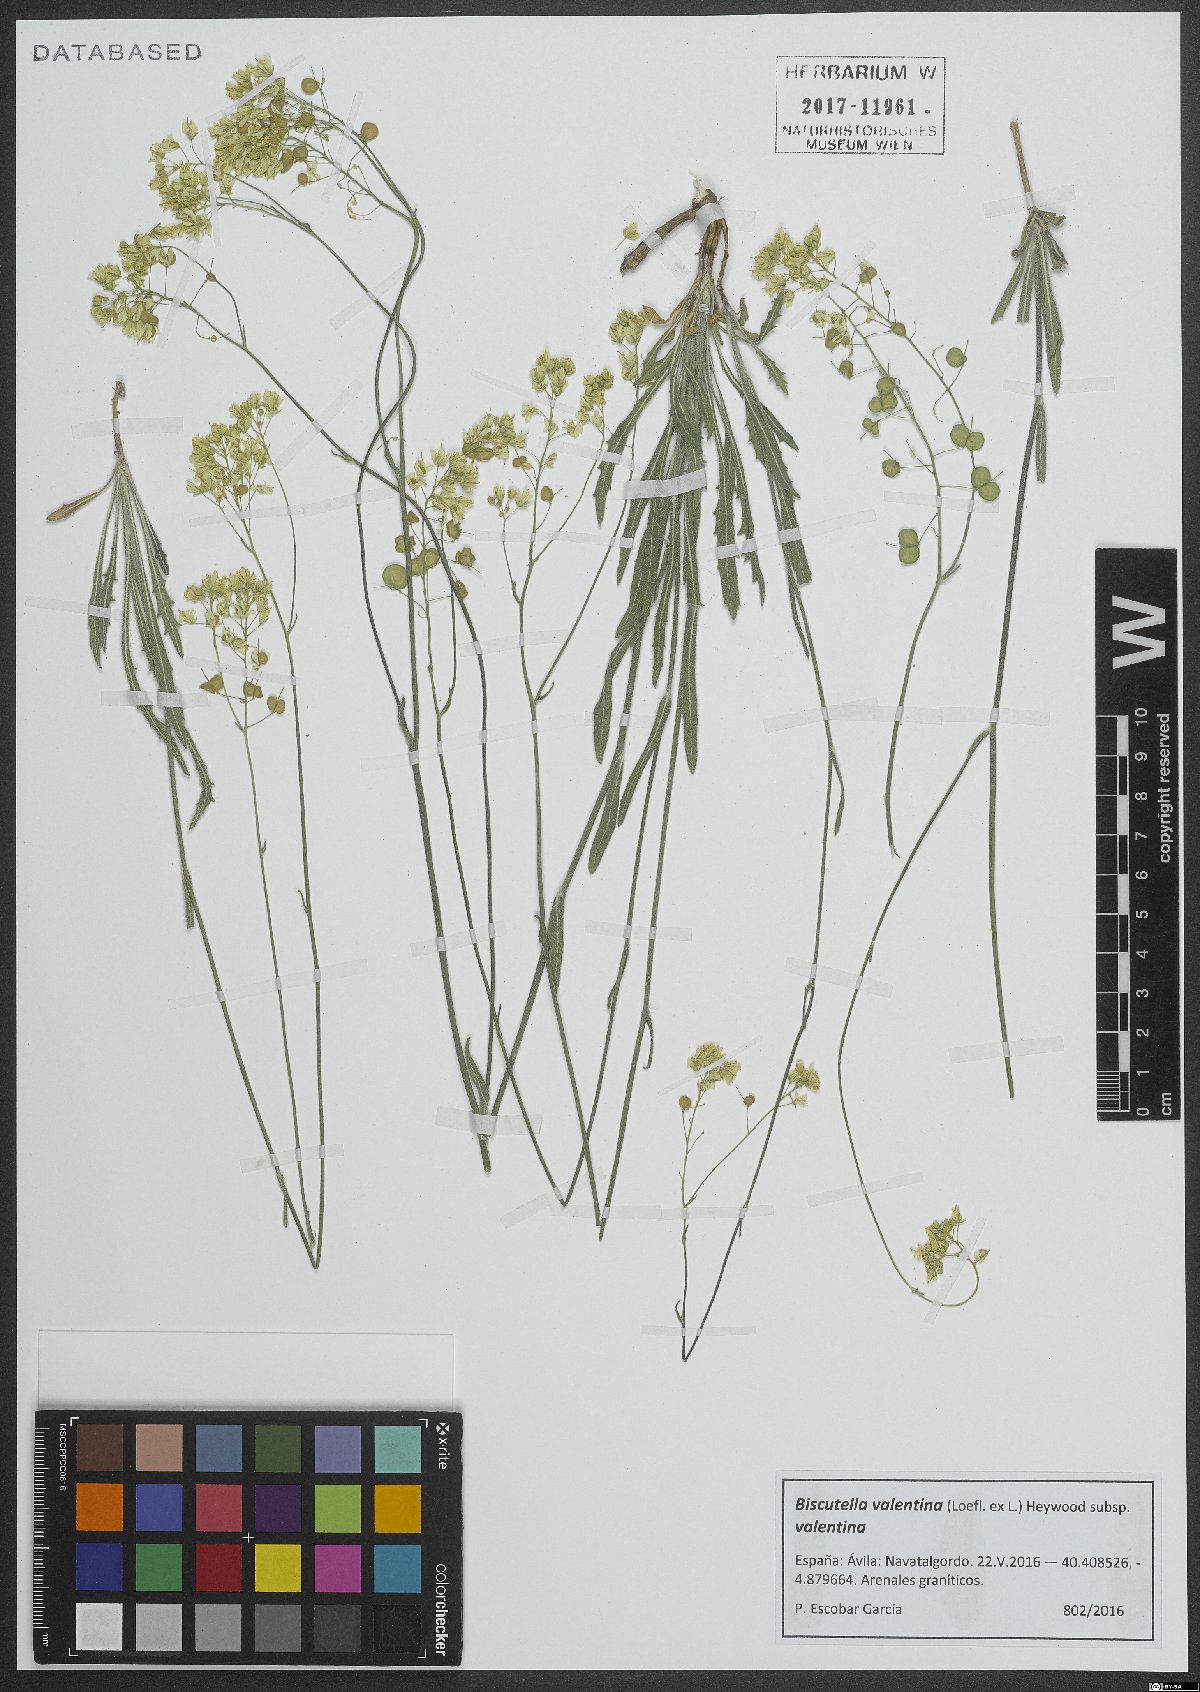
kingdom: Plantae
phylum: Tracheophyta
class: Magnoliopsida
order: Brassicales
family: Brassicaceae
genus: Biscutella
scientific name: Biscutella valentina
